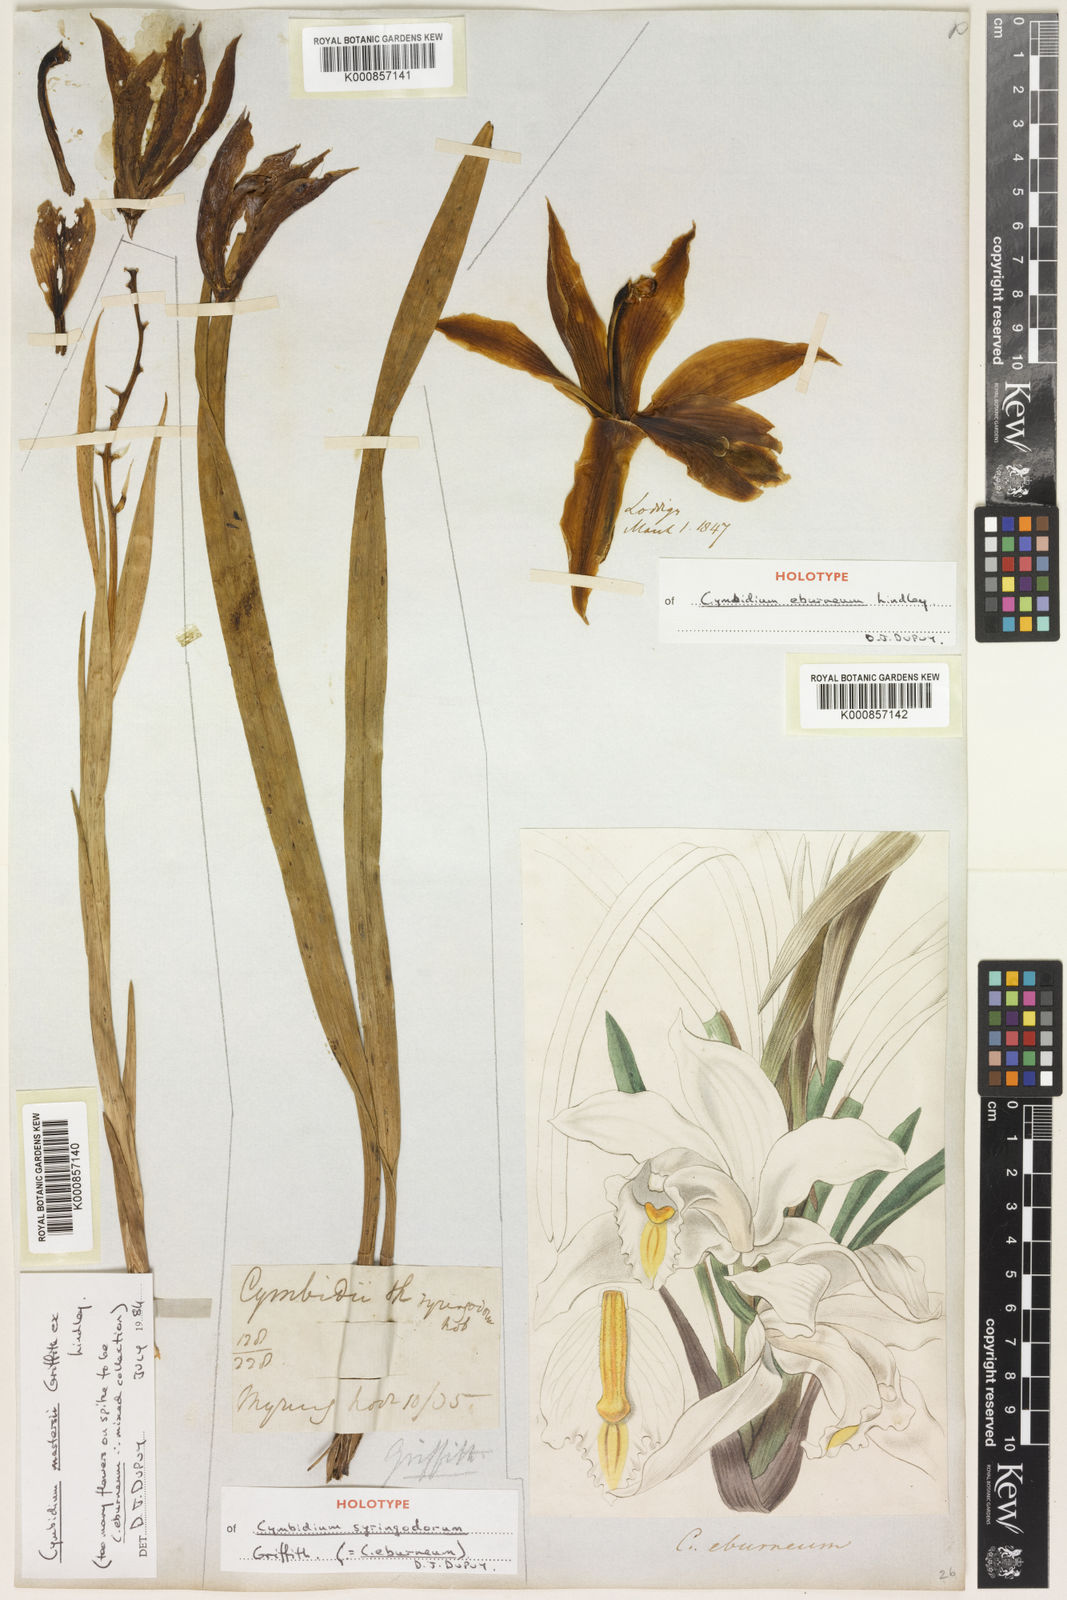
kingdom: Plantae
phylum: Tracheophyta
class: Liliopsida
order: Asparagales
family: Orchidaceae
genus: Cymbidium
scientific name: Cymbidium eburneum
